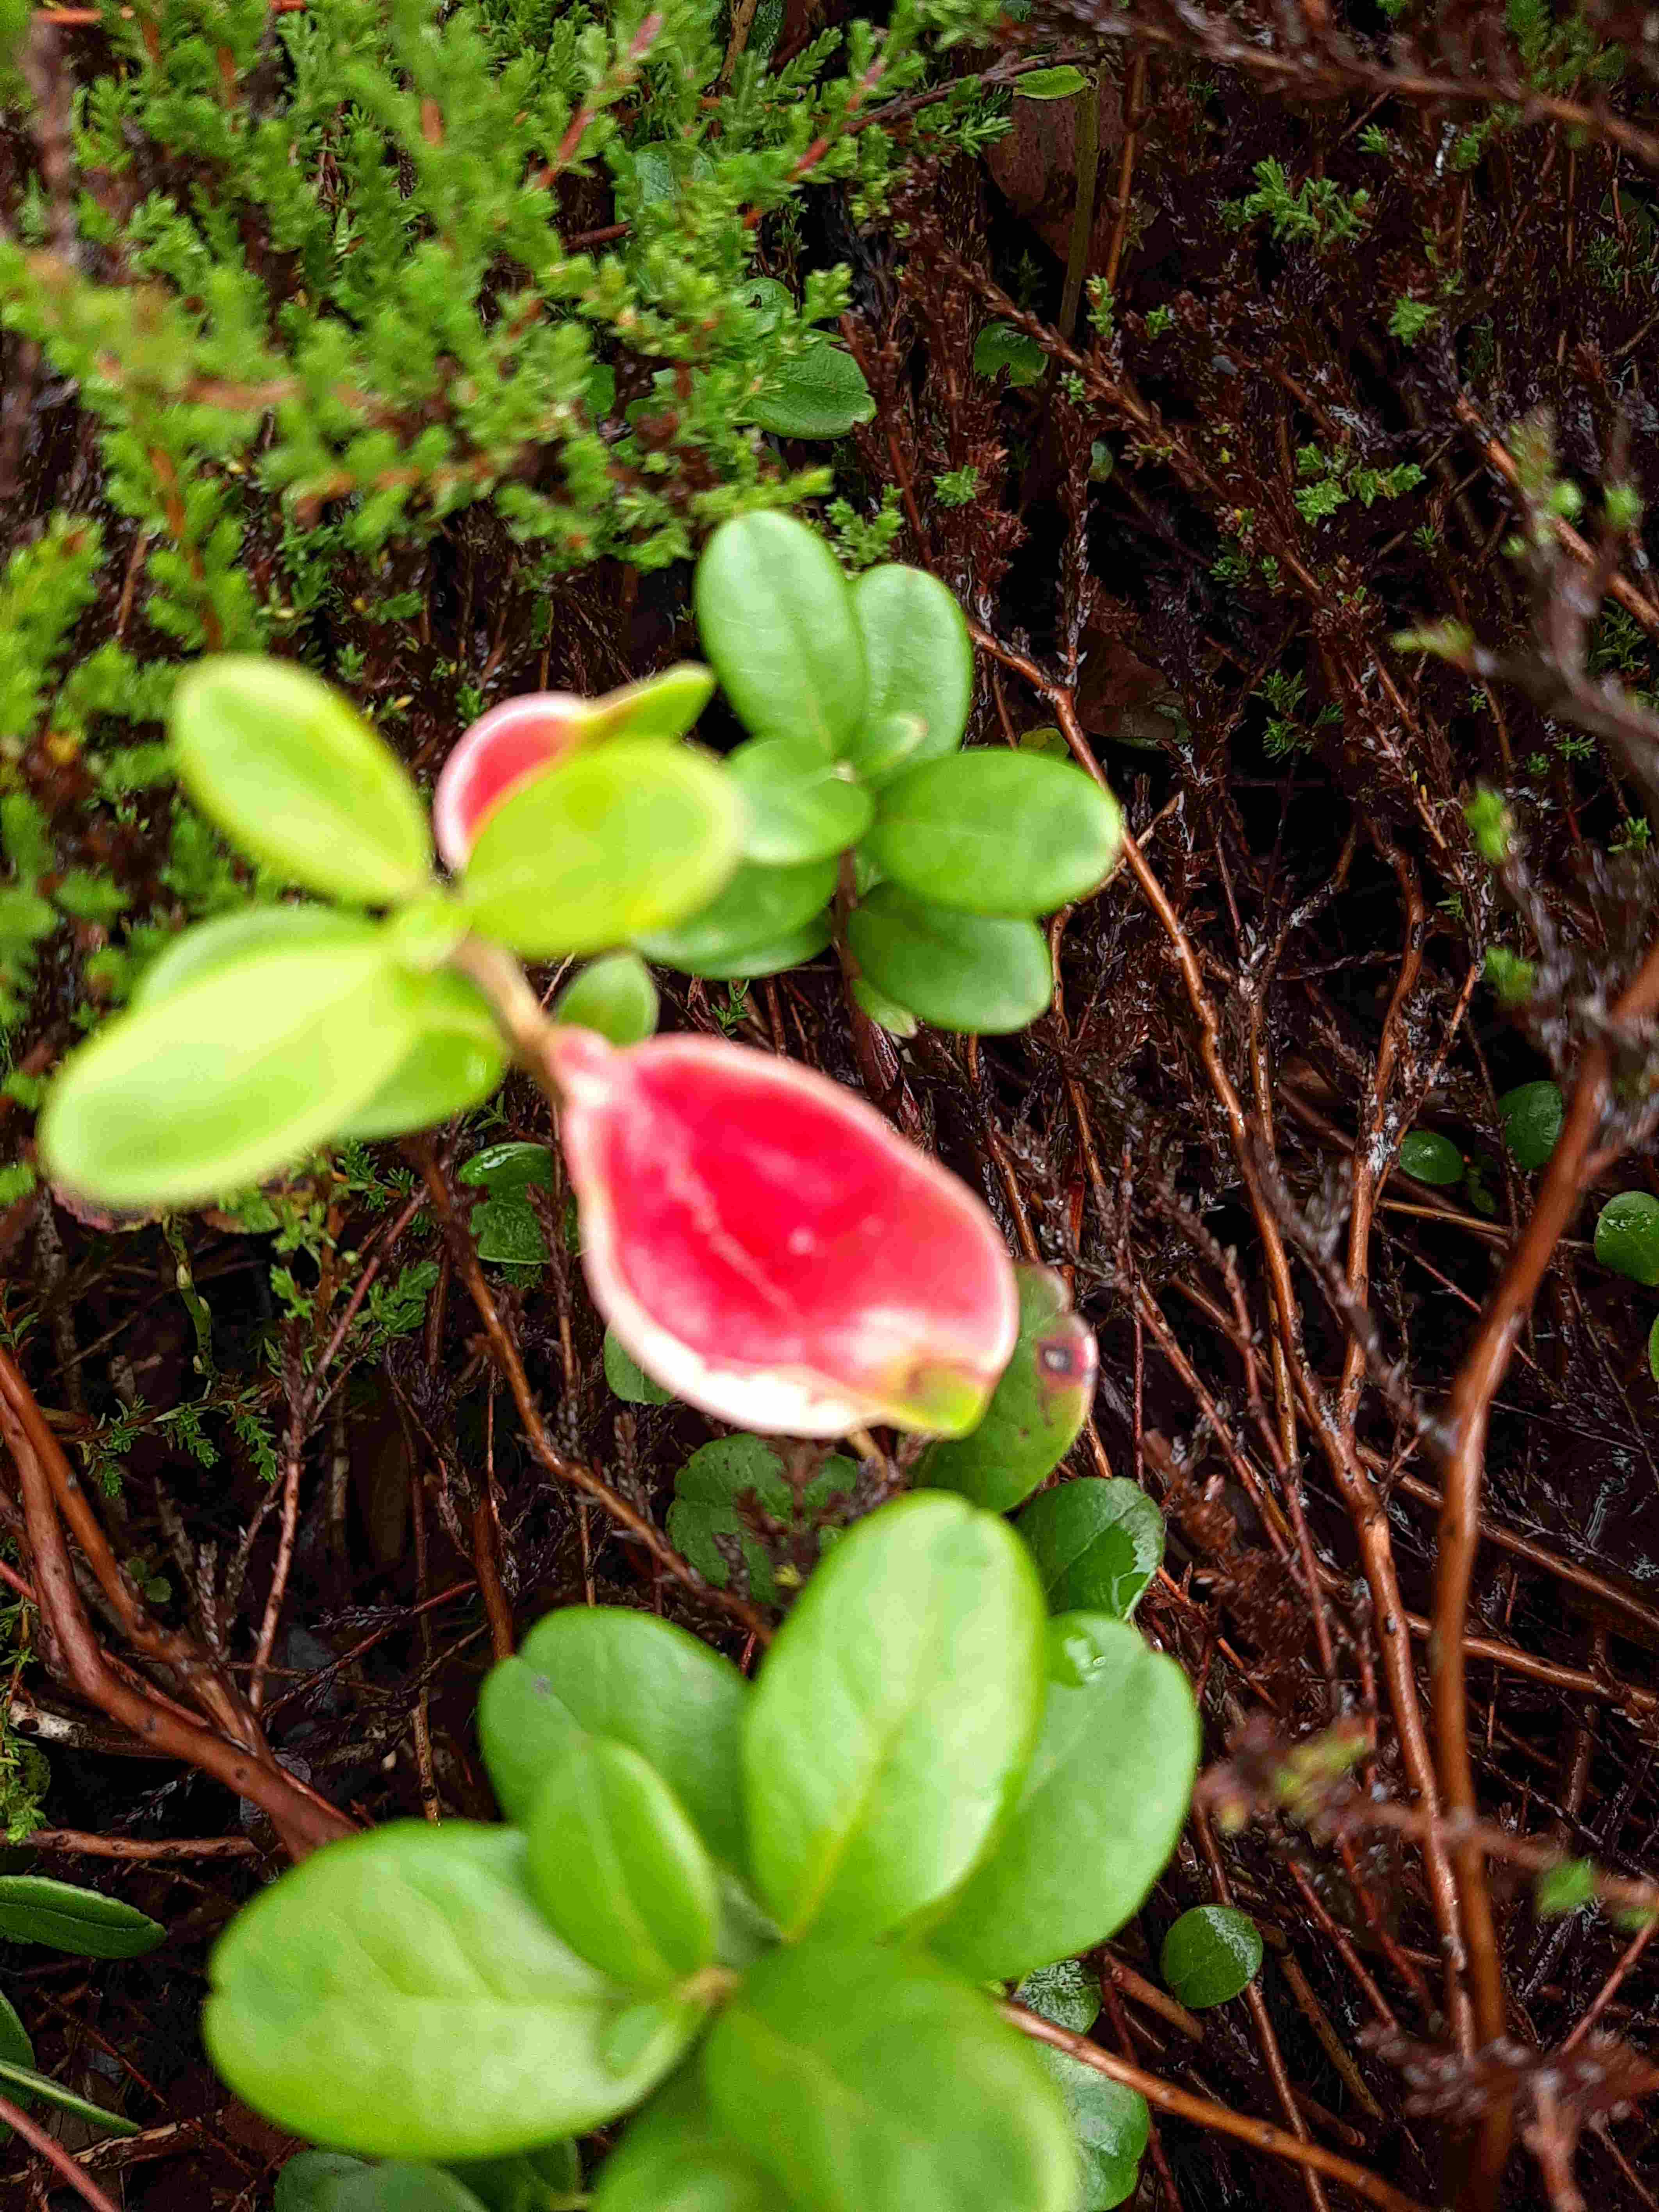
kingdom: Fungi
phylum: Basidiomycota
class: Exobasidiomycetes
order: Exobasidiales
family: Exobasidiaceae
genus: Exobasidium
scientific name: Exobasidium vaccinii
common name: tyttebærblad-bøllesvamp
